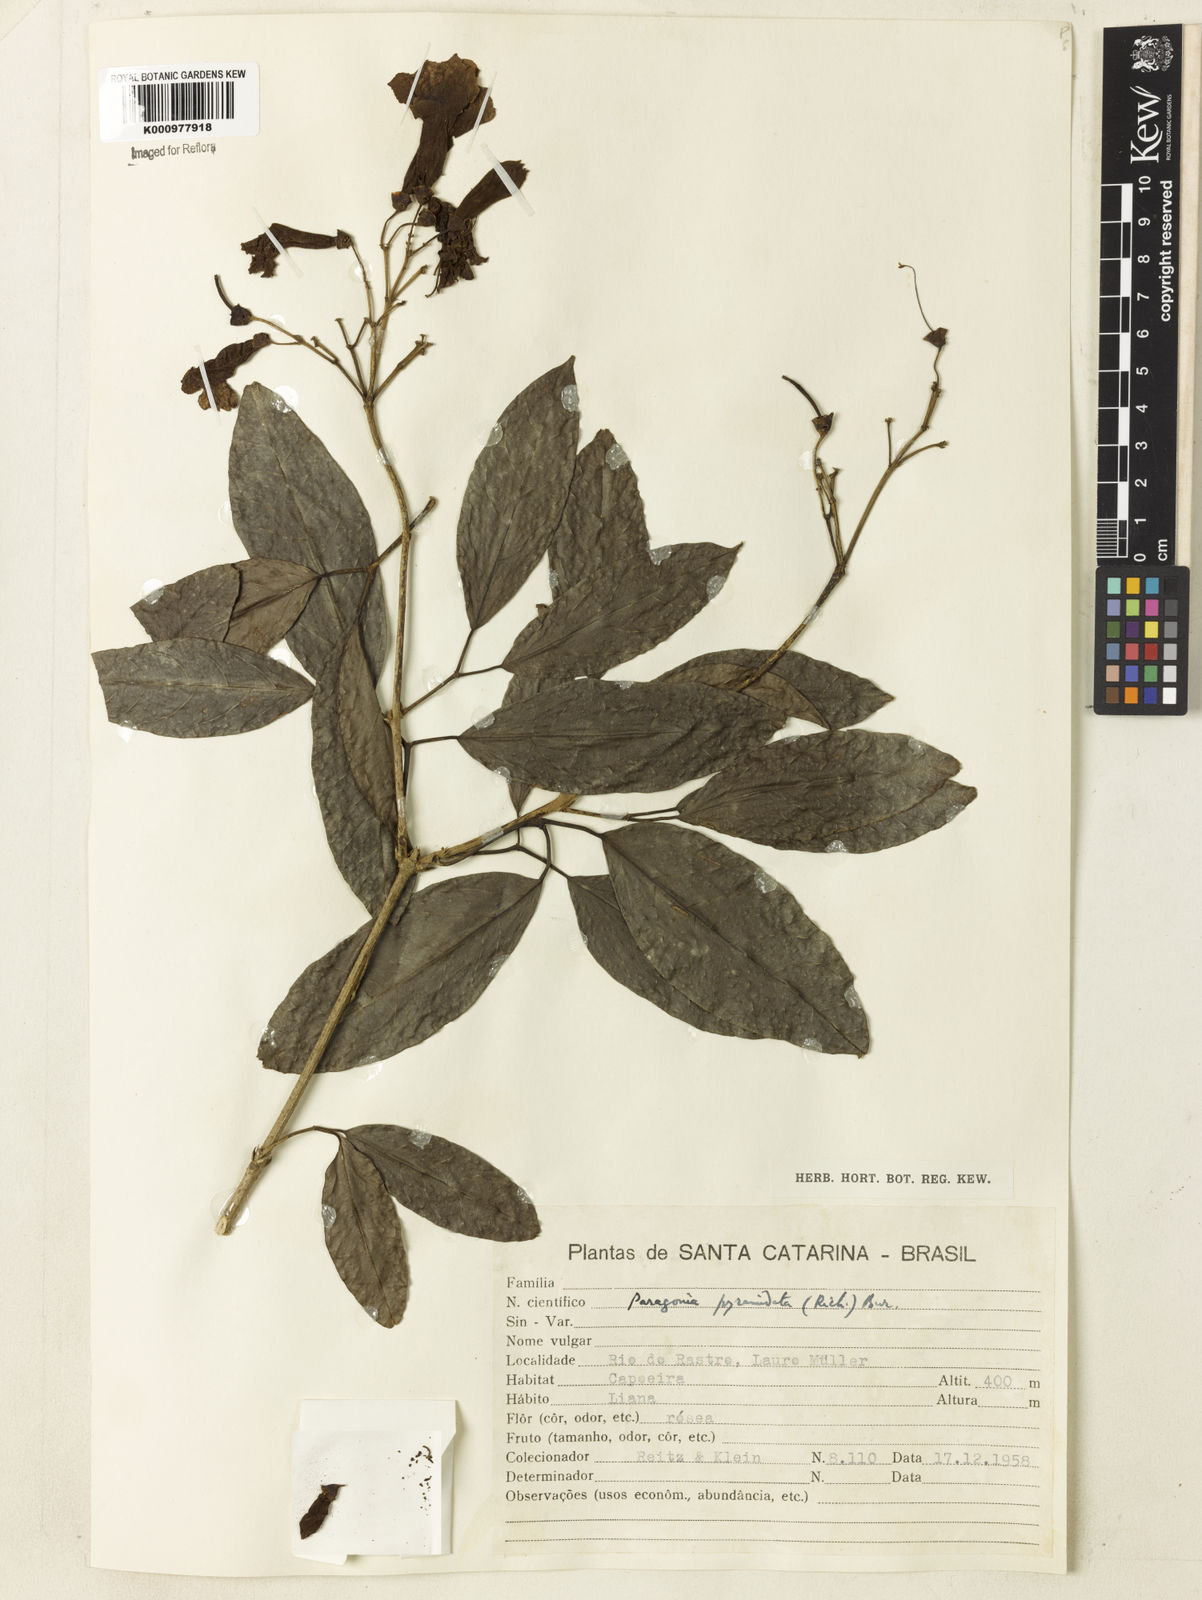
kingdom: Plantae
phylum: Tracheophyta
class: Magnoliopsida
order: Lamiales
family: Bignoniaceae
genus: Tanaecium
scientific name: Tanaecium pyramidatum
